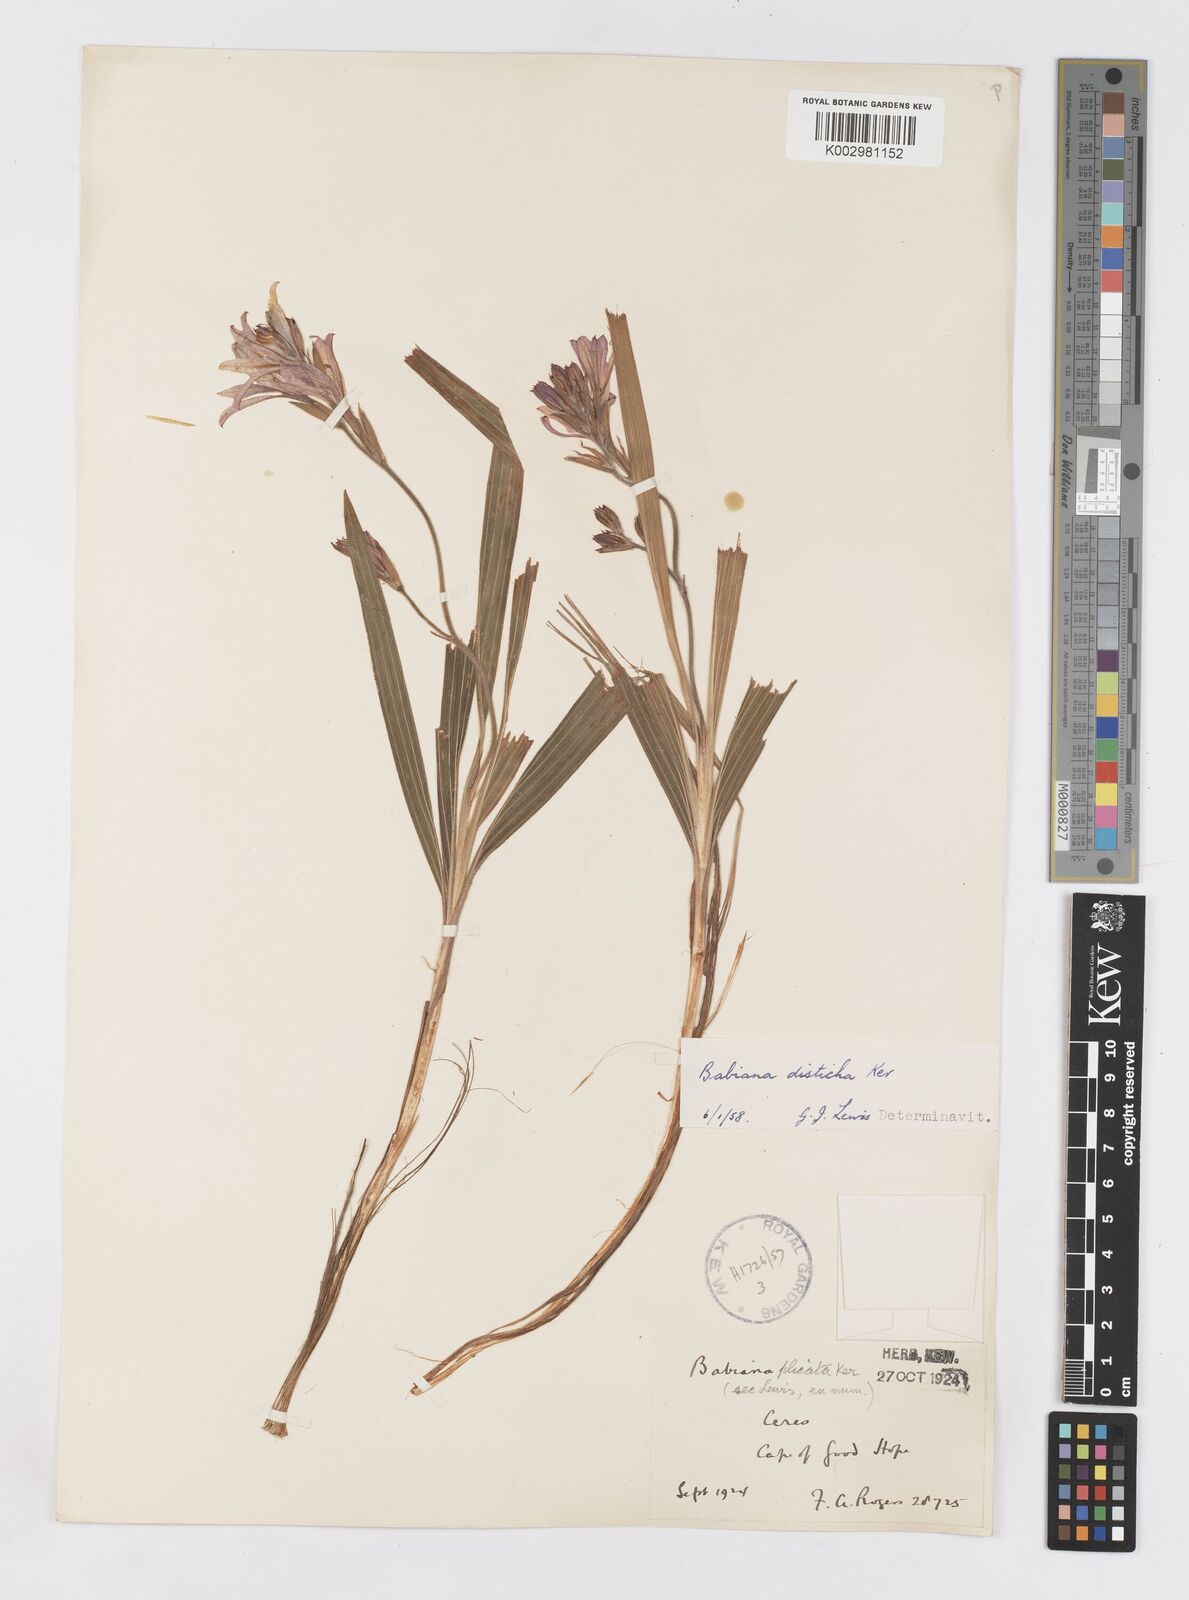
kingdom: Plantae
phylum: Tracheophyta
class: Liliopsida
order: Asparagales
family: Iridaceae
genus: Babiana
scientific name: Babiana fragrans
